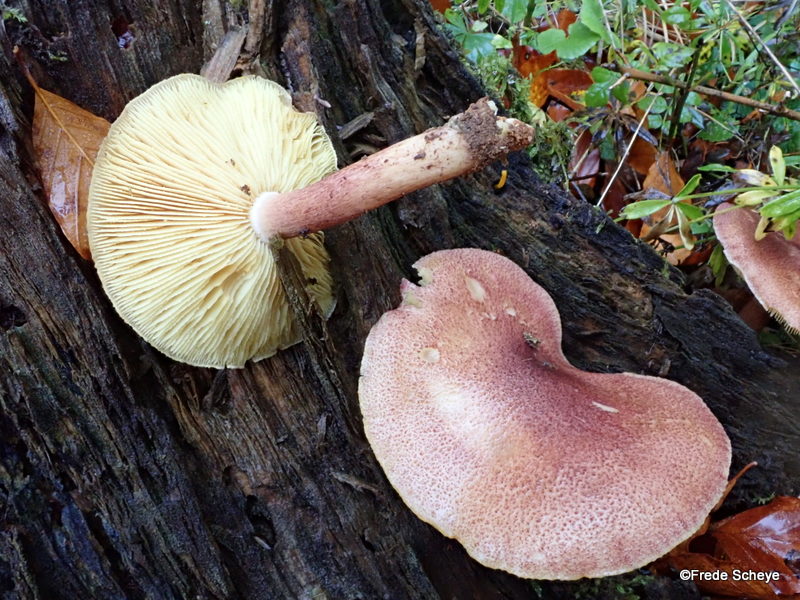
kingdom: Fungi
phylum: Basidiomycota
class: Agaricomycetes
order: Agaricales
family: Tricholomataceae
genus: Tricholomopsis
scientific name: Tricholomopsis rutilans
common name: purpur-væbnerhat
